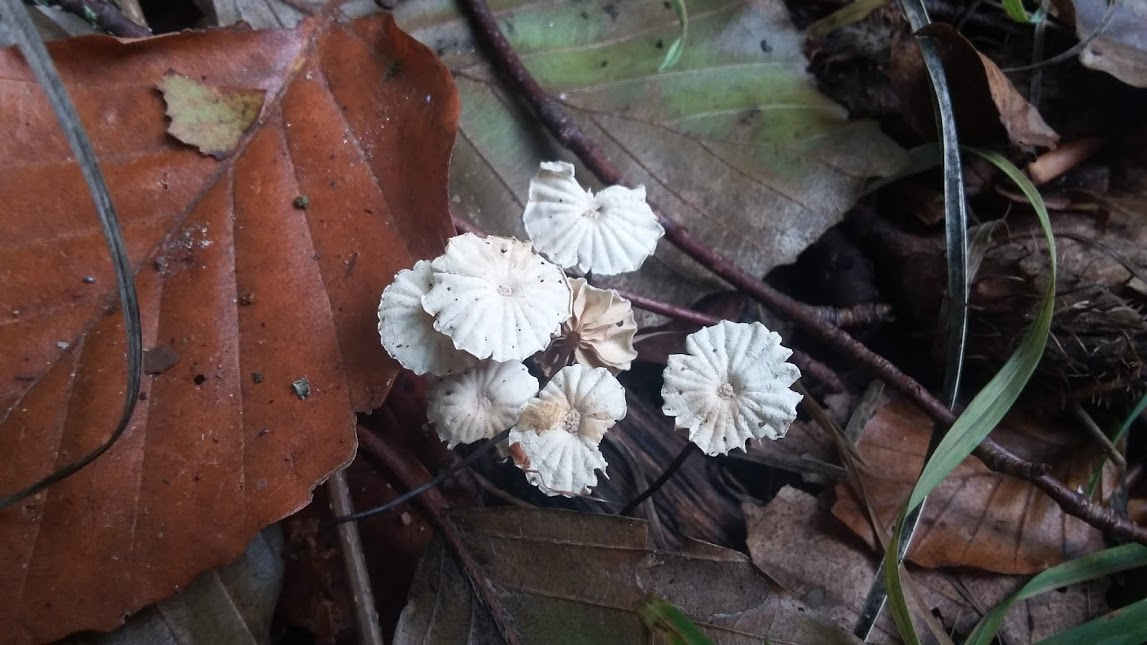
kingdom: Fungi
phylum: Basidiomycota
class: Agaricomycetes
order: Agaricales
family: Marasmiaceae
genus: Marasmius
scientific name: Marasmius rotula
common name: hjul-bruskhat
